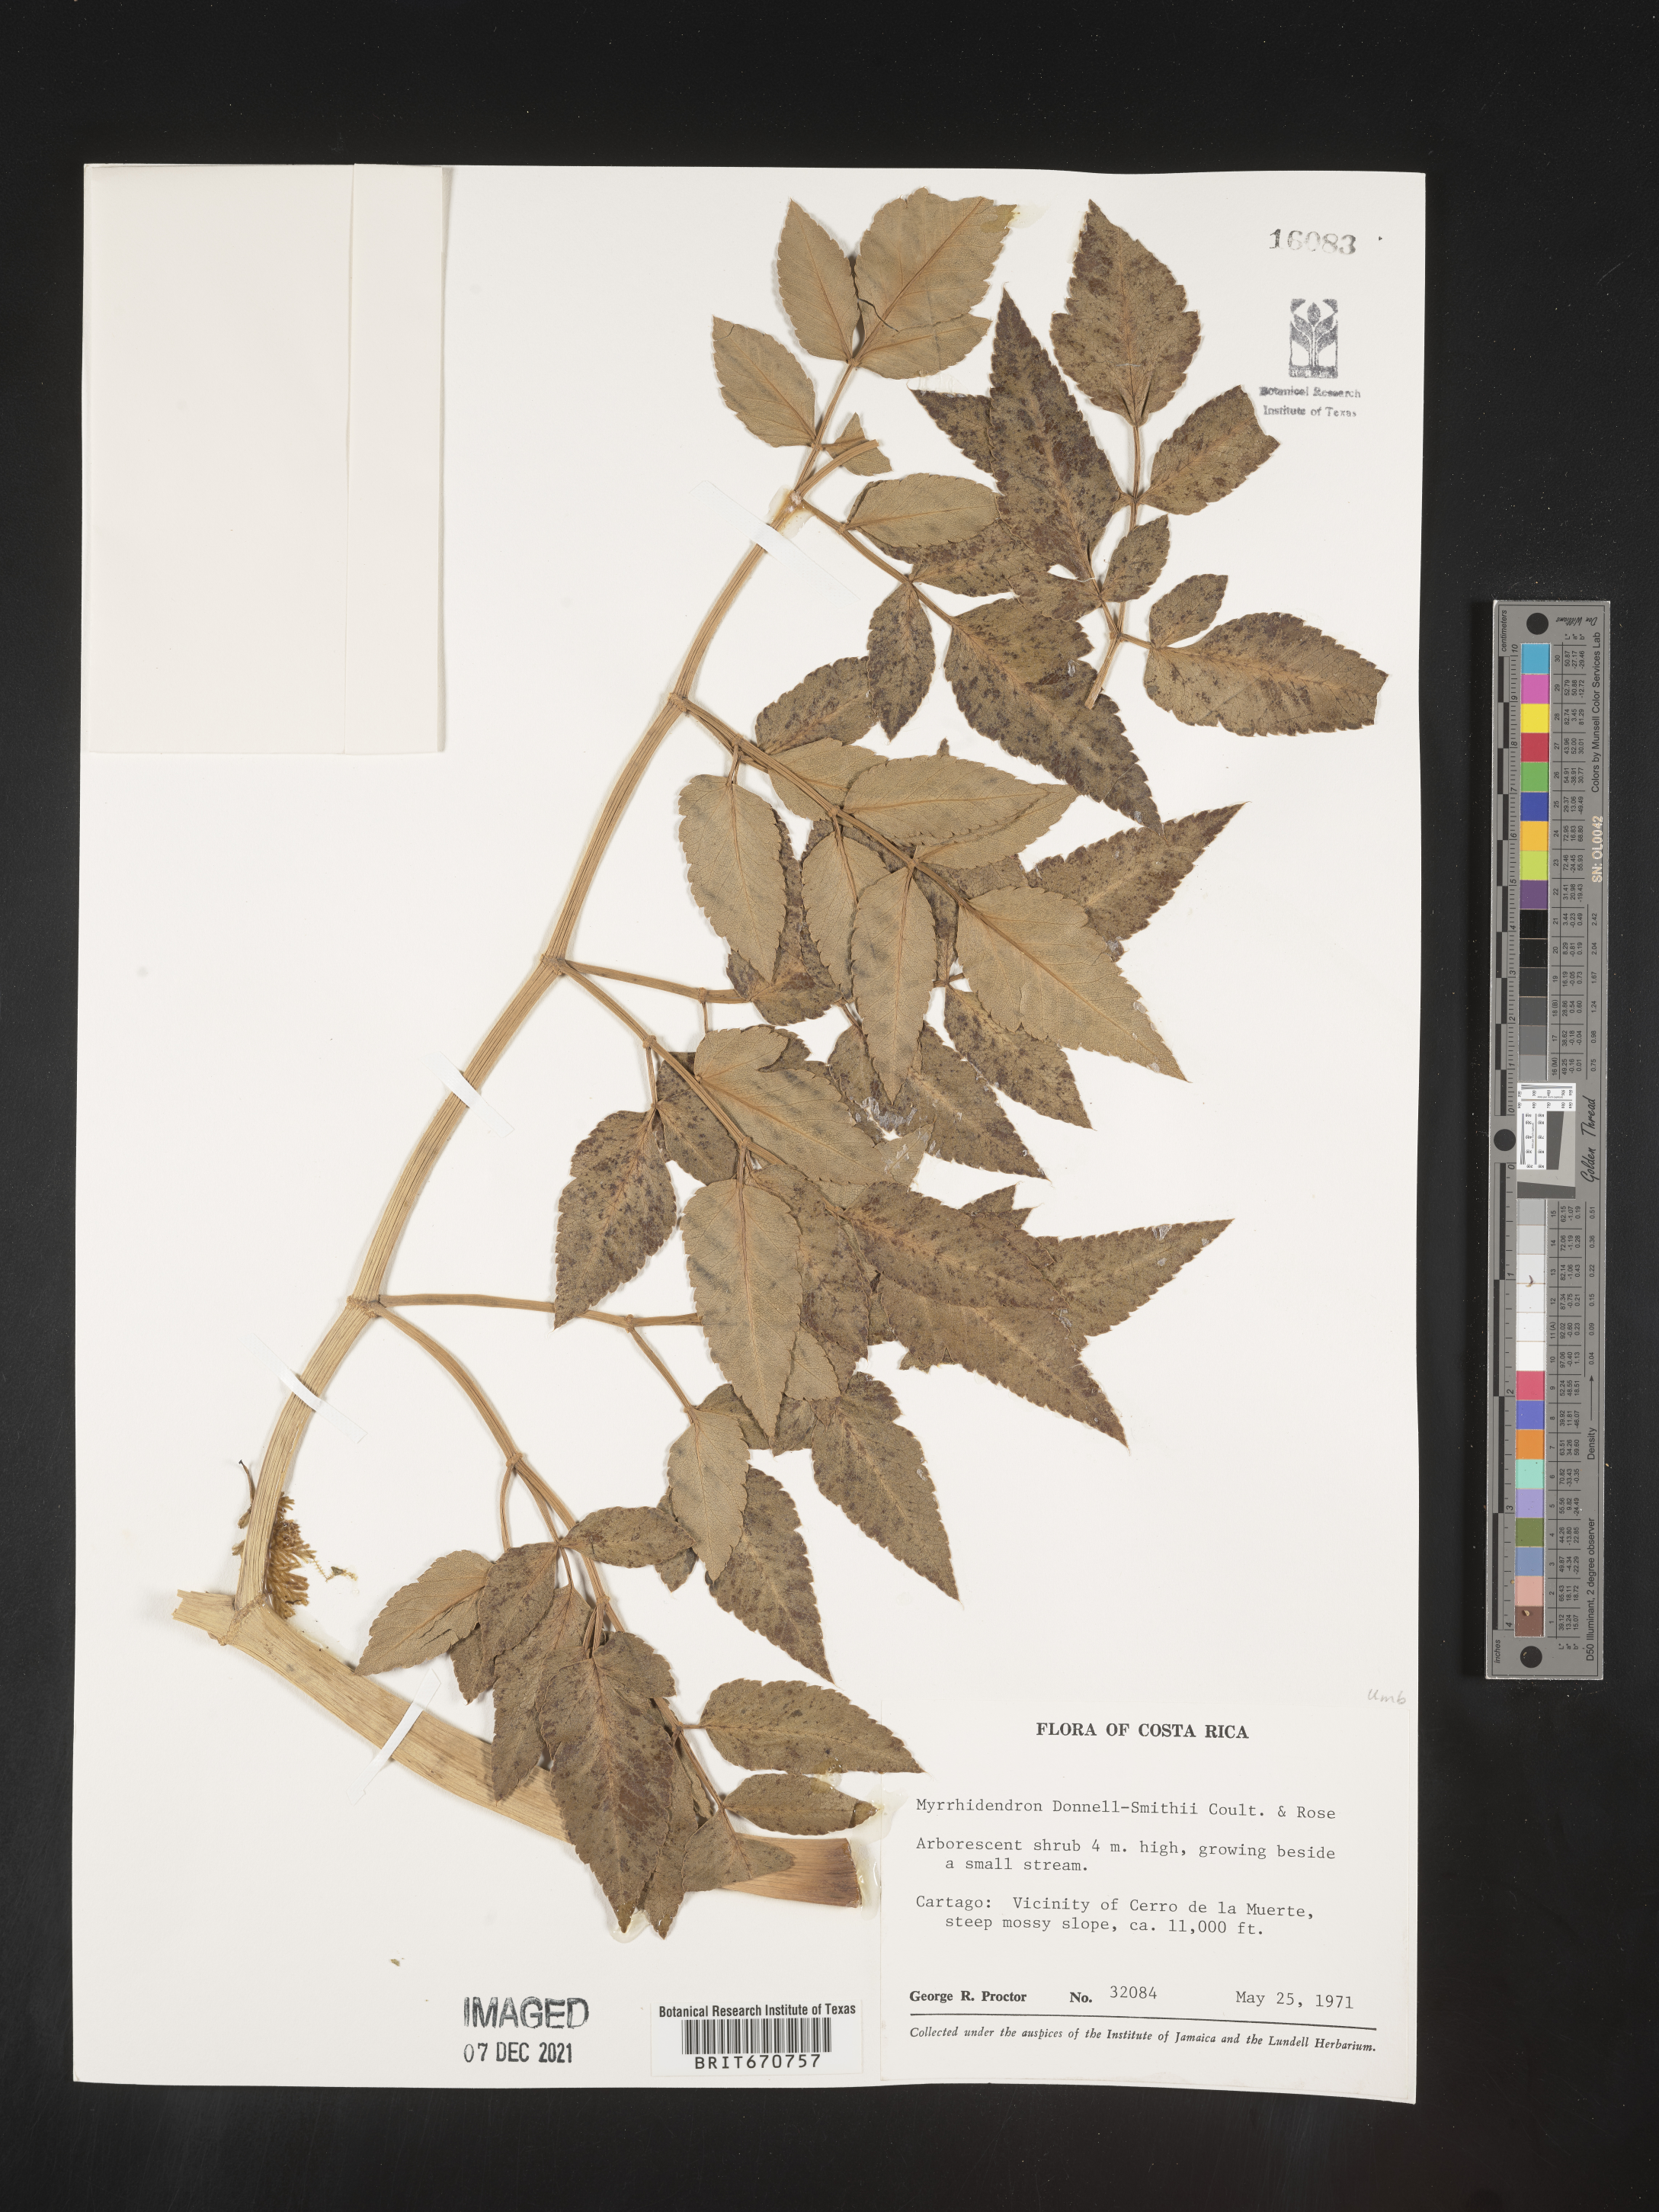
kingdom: Plantae
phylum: Tracheophyta
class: Magnoliopsida
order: Apiales
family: Apiaceae
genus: Myrrhidendron
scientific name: Myrrhidendron
